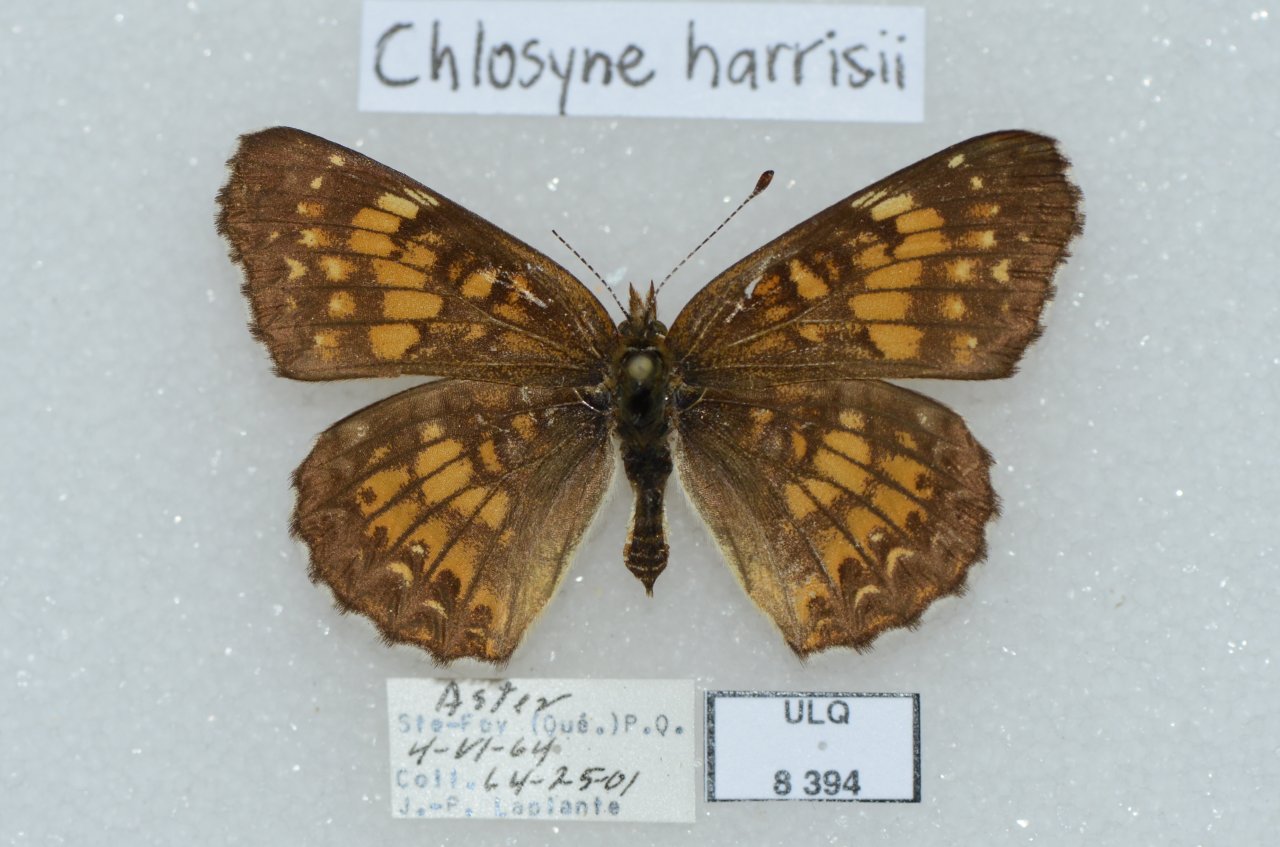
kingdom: Animalia
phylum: Arthropoda
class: Insecta
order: Lepidoptera
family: Nymphalidae
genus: Chlosyne
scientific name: Chlosyne harrisii
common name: Harris's Checkerspot
